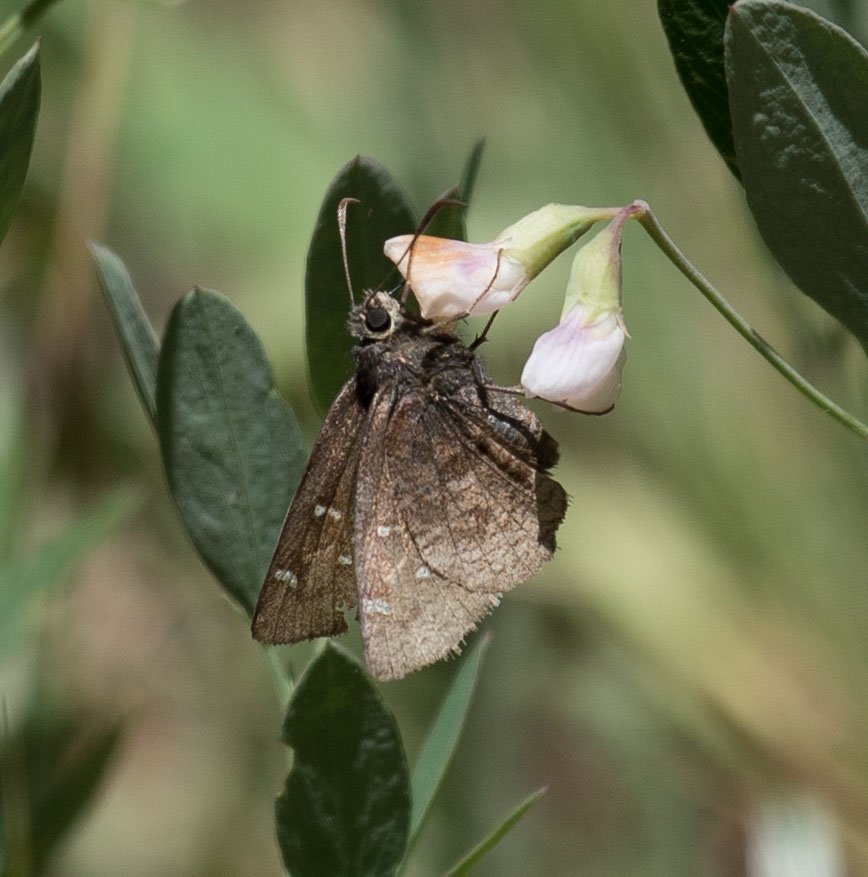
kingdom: Animalia
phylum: Arthropoda
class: Insecta
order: Lepidoptera
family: Hesperiidae
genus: Thorybes
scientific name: Thorybes mexicana
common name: Mexican Cloudywing
